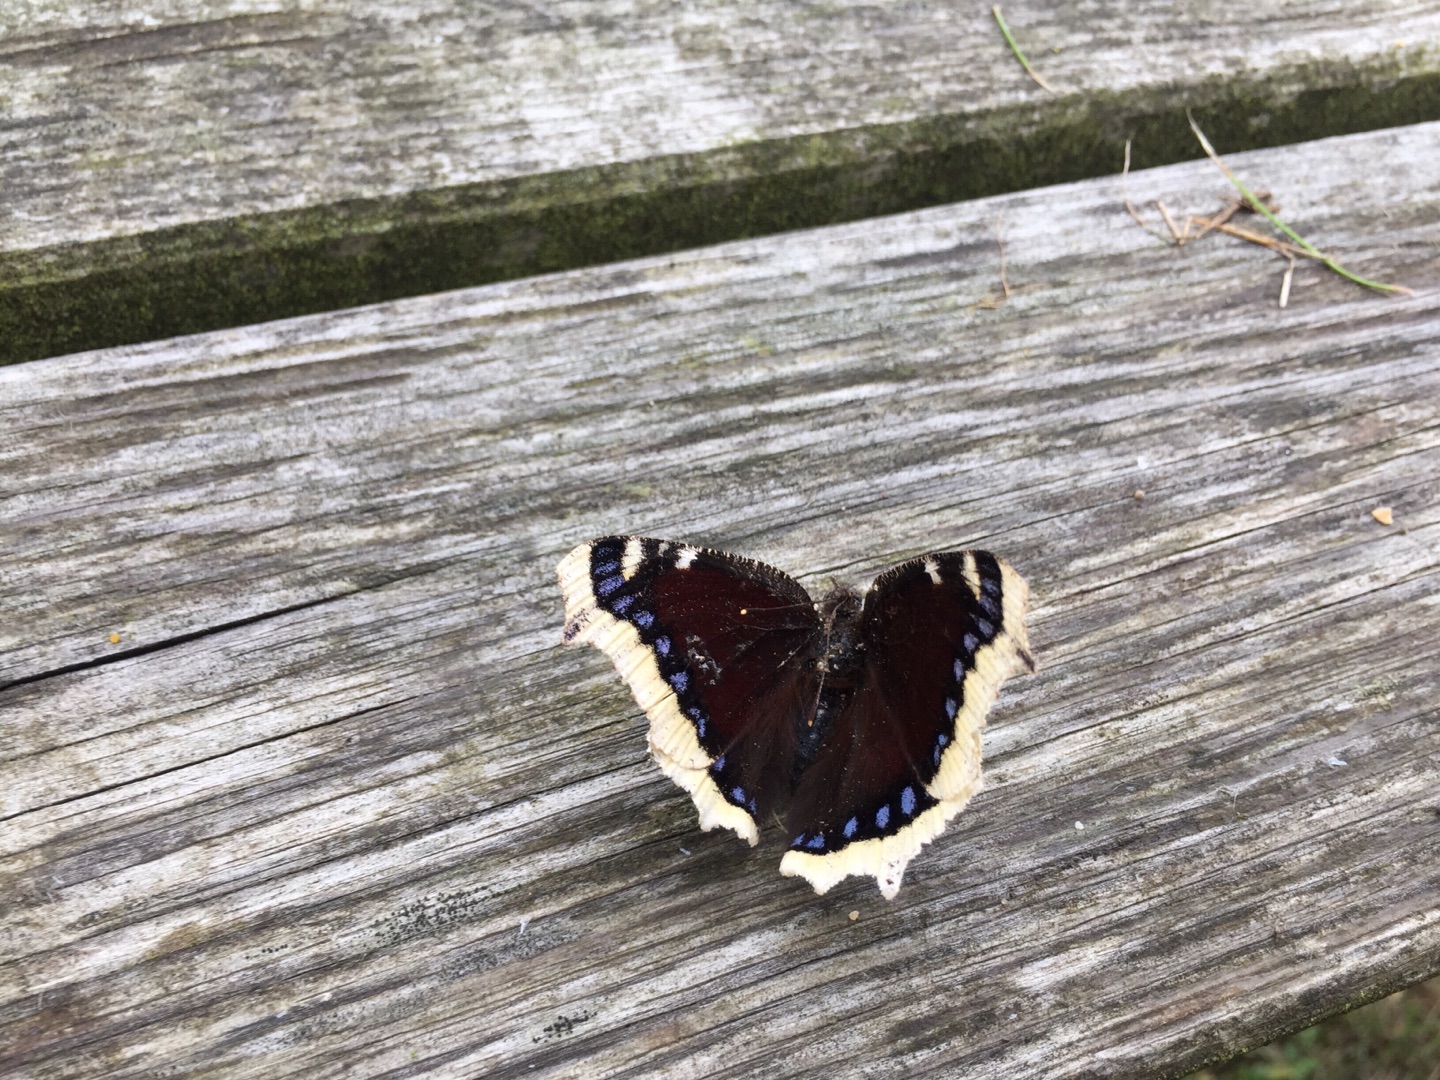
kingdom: Animalia
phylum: Arthropoda
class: Insecta
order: Lepidoptera
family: Nymphalidae
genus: Nymphalis
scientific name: Nymphalis antiopa
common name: Sørgekåbe
